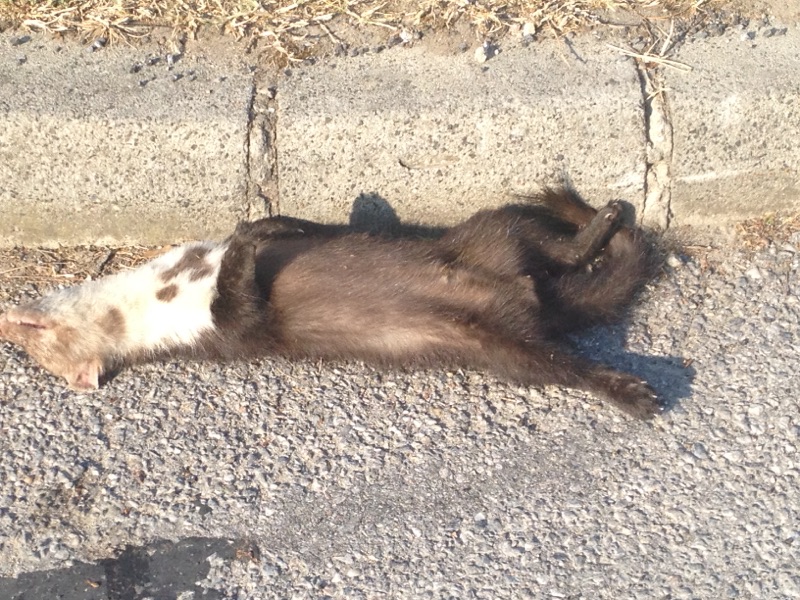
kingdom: Animalia
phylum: Chordata
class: Mammalia
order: Carnivora
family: Mustelidae
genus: Martes
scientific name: Martes foina
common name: Beech marten
